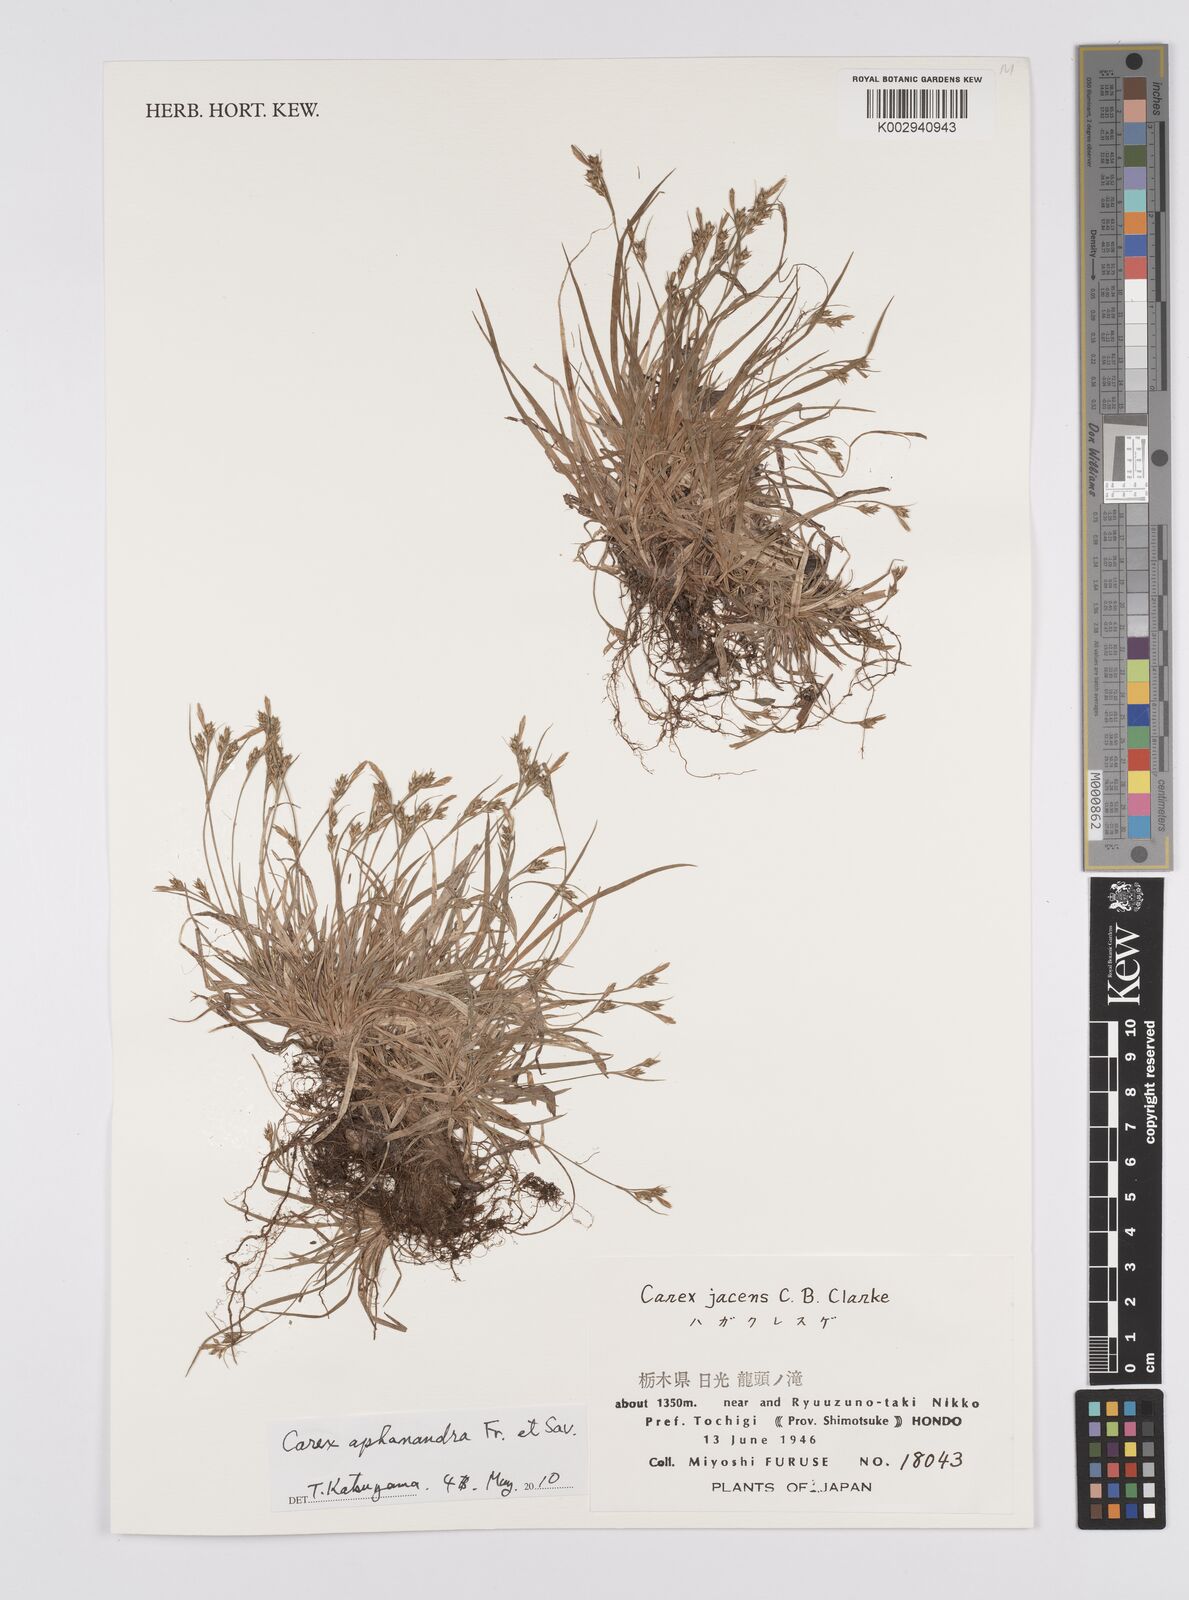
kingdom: Plantae
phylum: Tracheophyta
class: Liliopsida
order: Poales
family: Cyperaceae
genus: Carex
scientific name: Carex breviculmis
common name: Asian shortstem sedge
